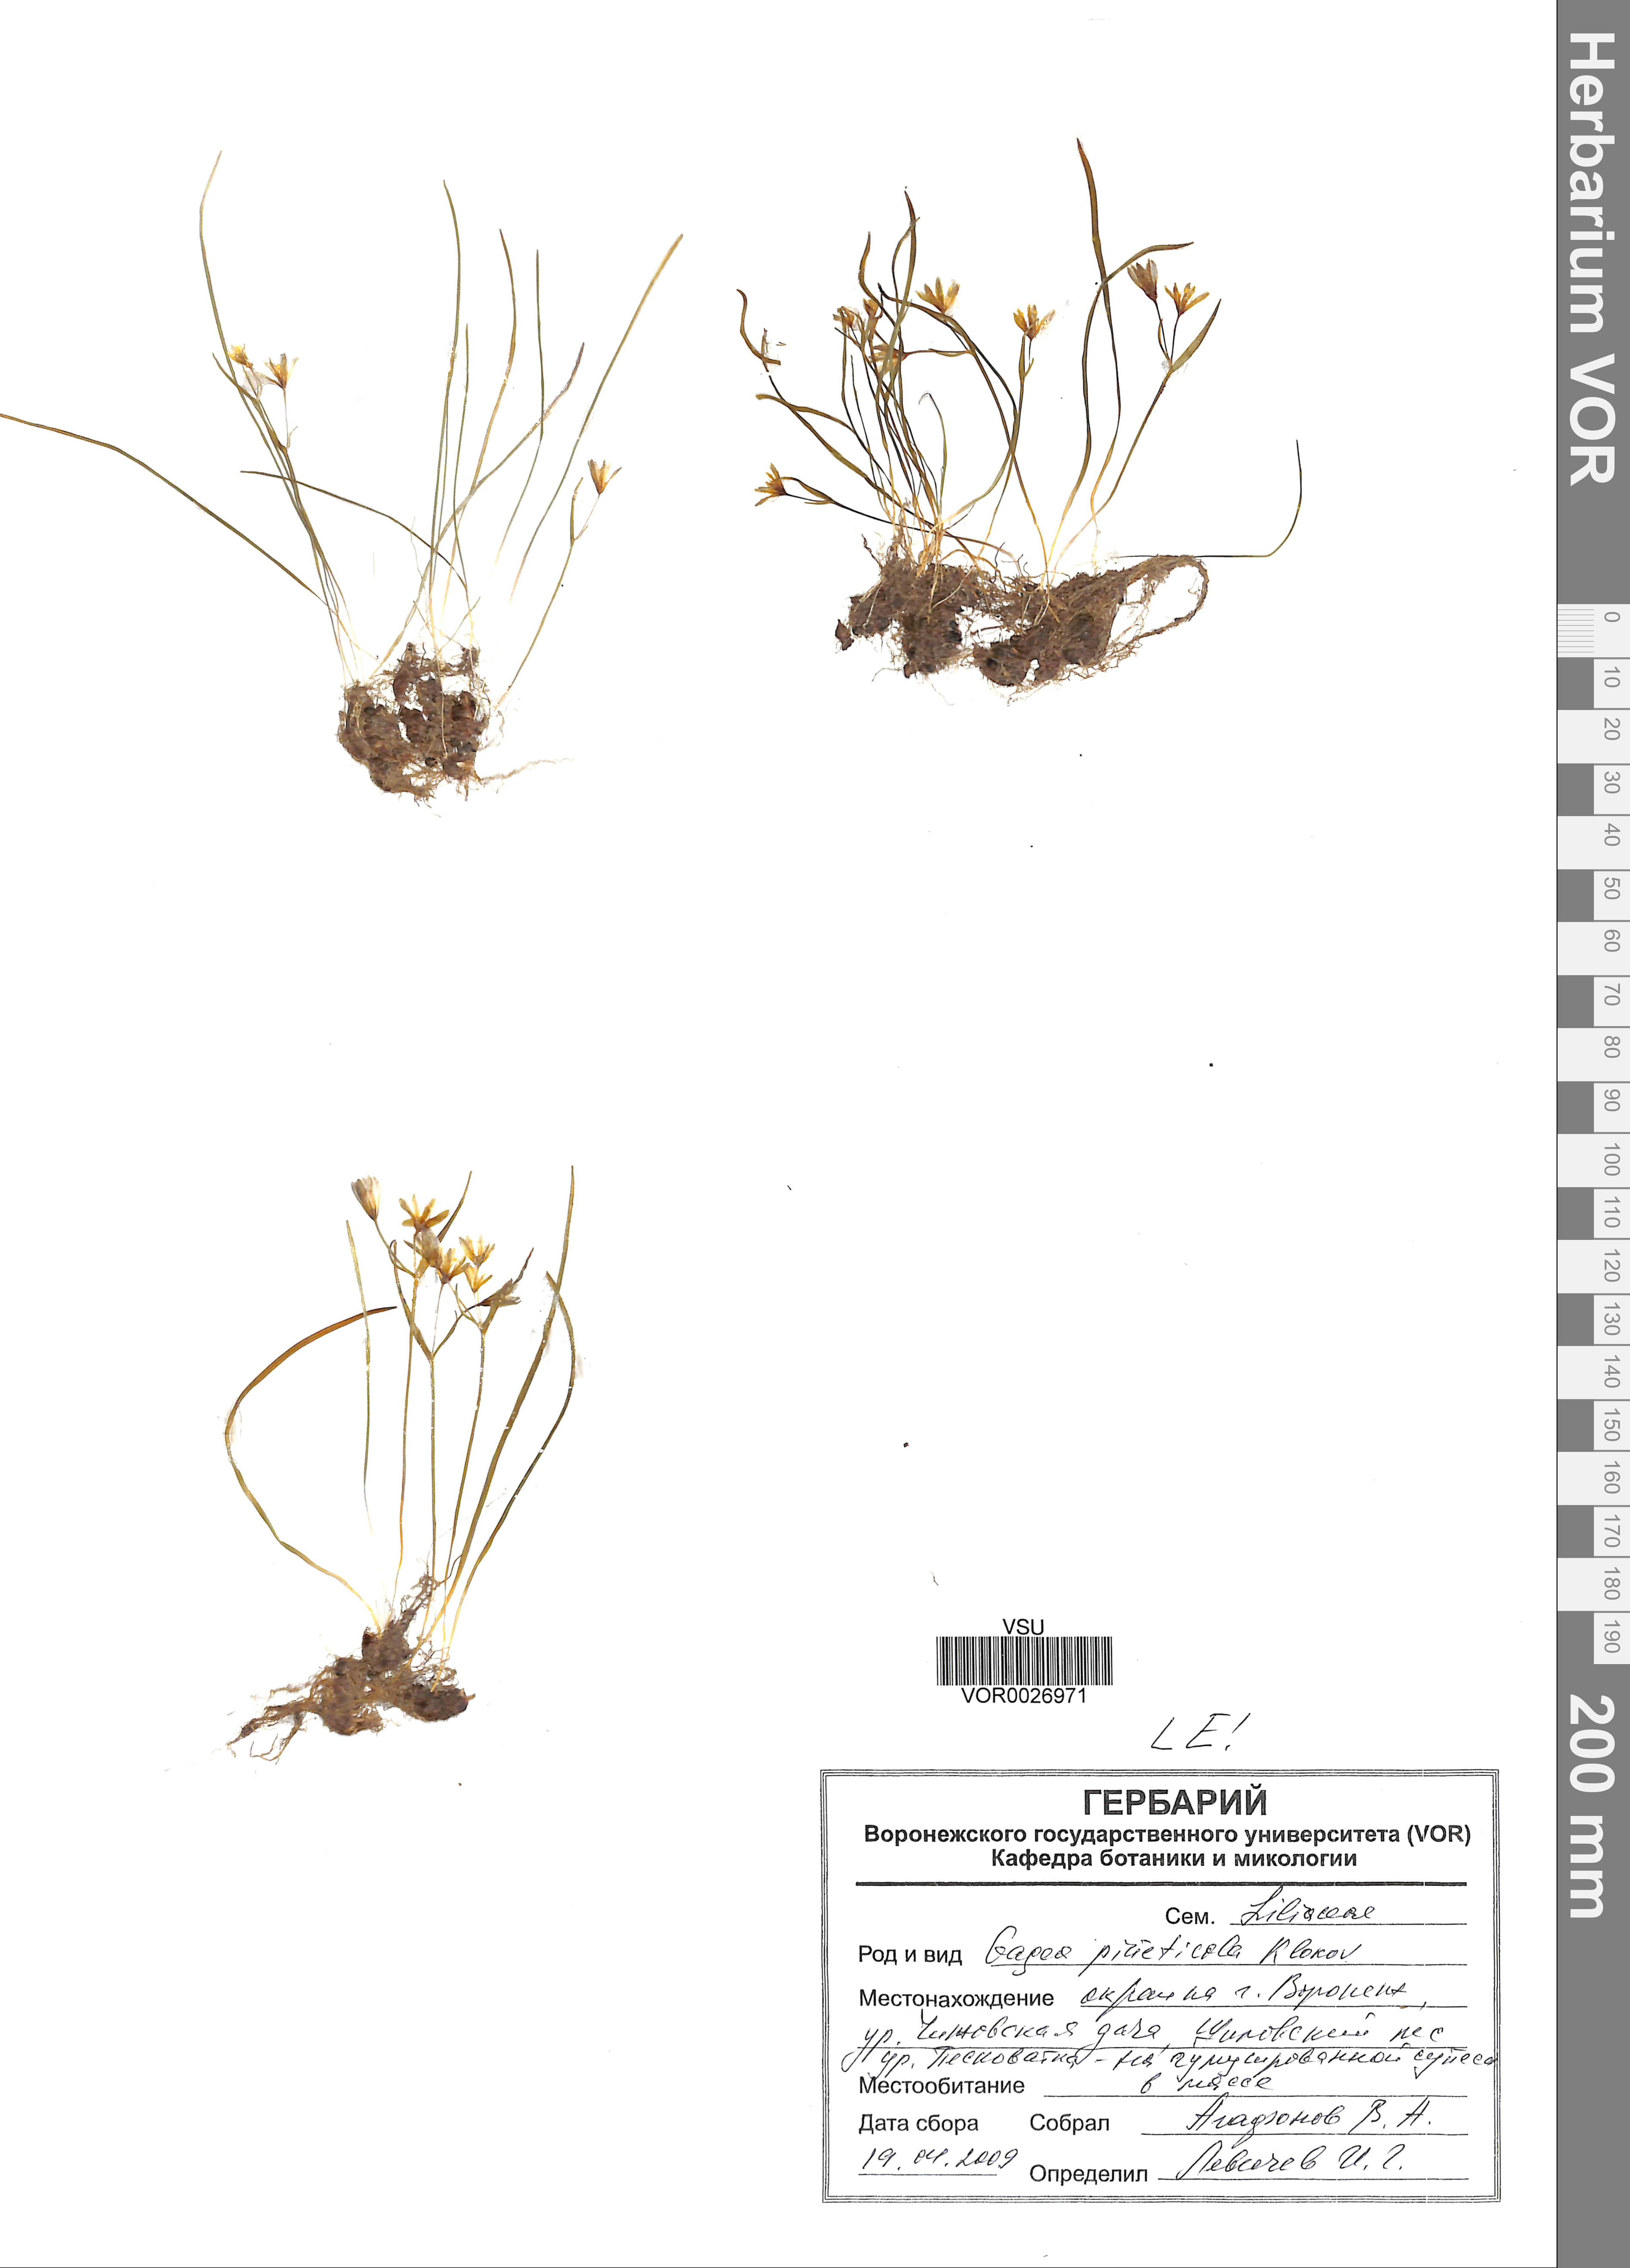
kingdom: Plantae
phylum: Tracheophyta
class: Liliopsida
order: Liliales
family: Liliaceae
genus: Gagea
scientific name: Gagea pusilla
